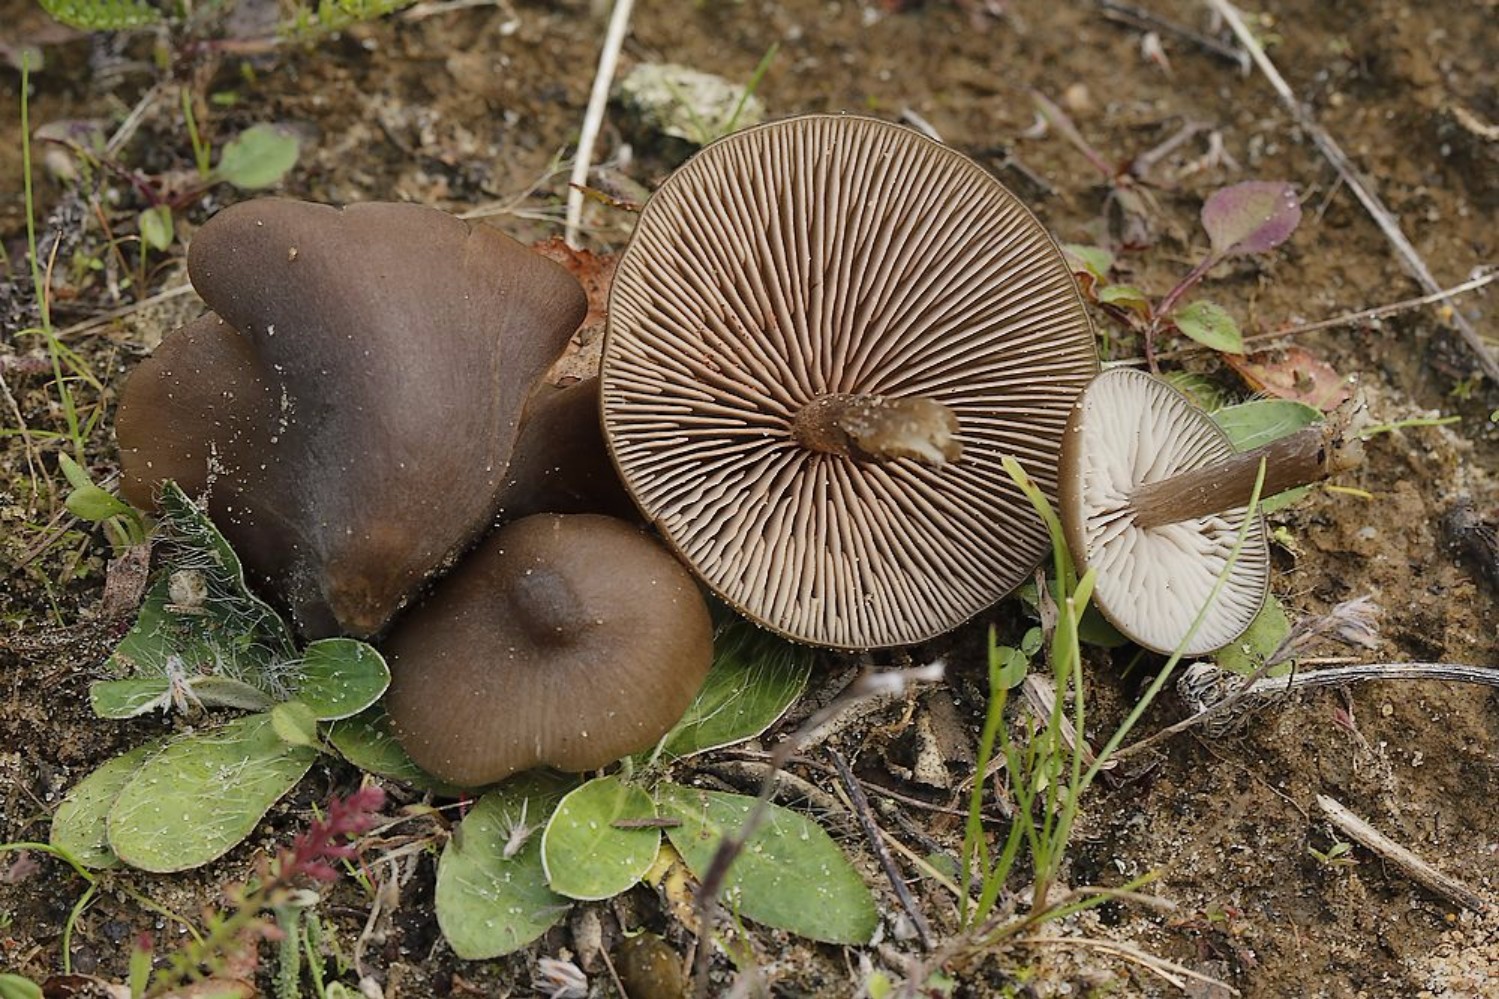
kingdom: Fungi
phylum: Basidiomycota
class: Agaricomycetes
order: Agaricales
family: Entolomataceae
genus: Entoloma
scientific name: Entoloma
